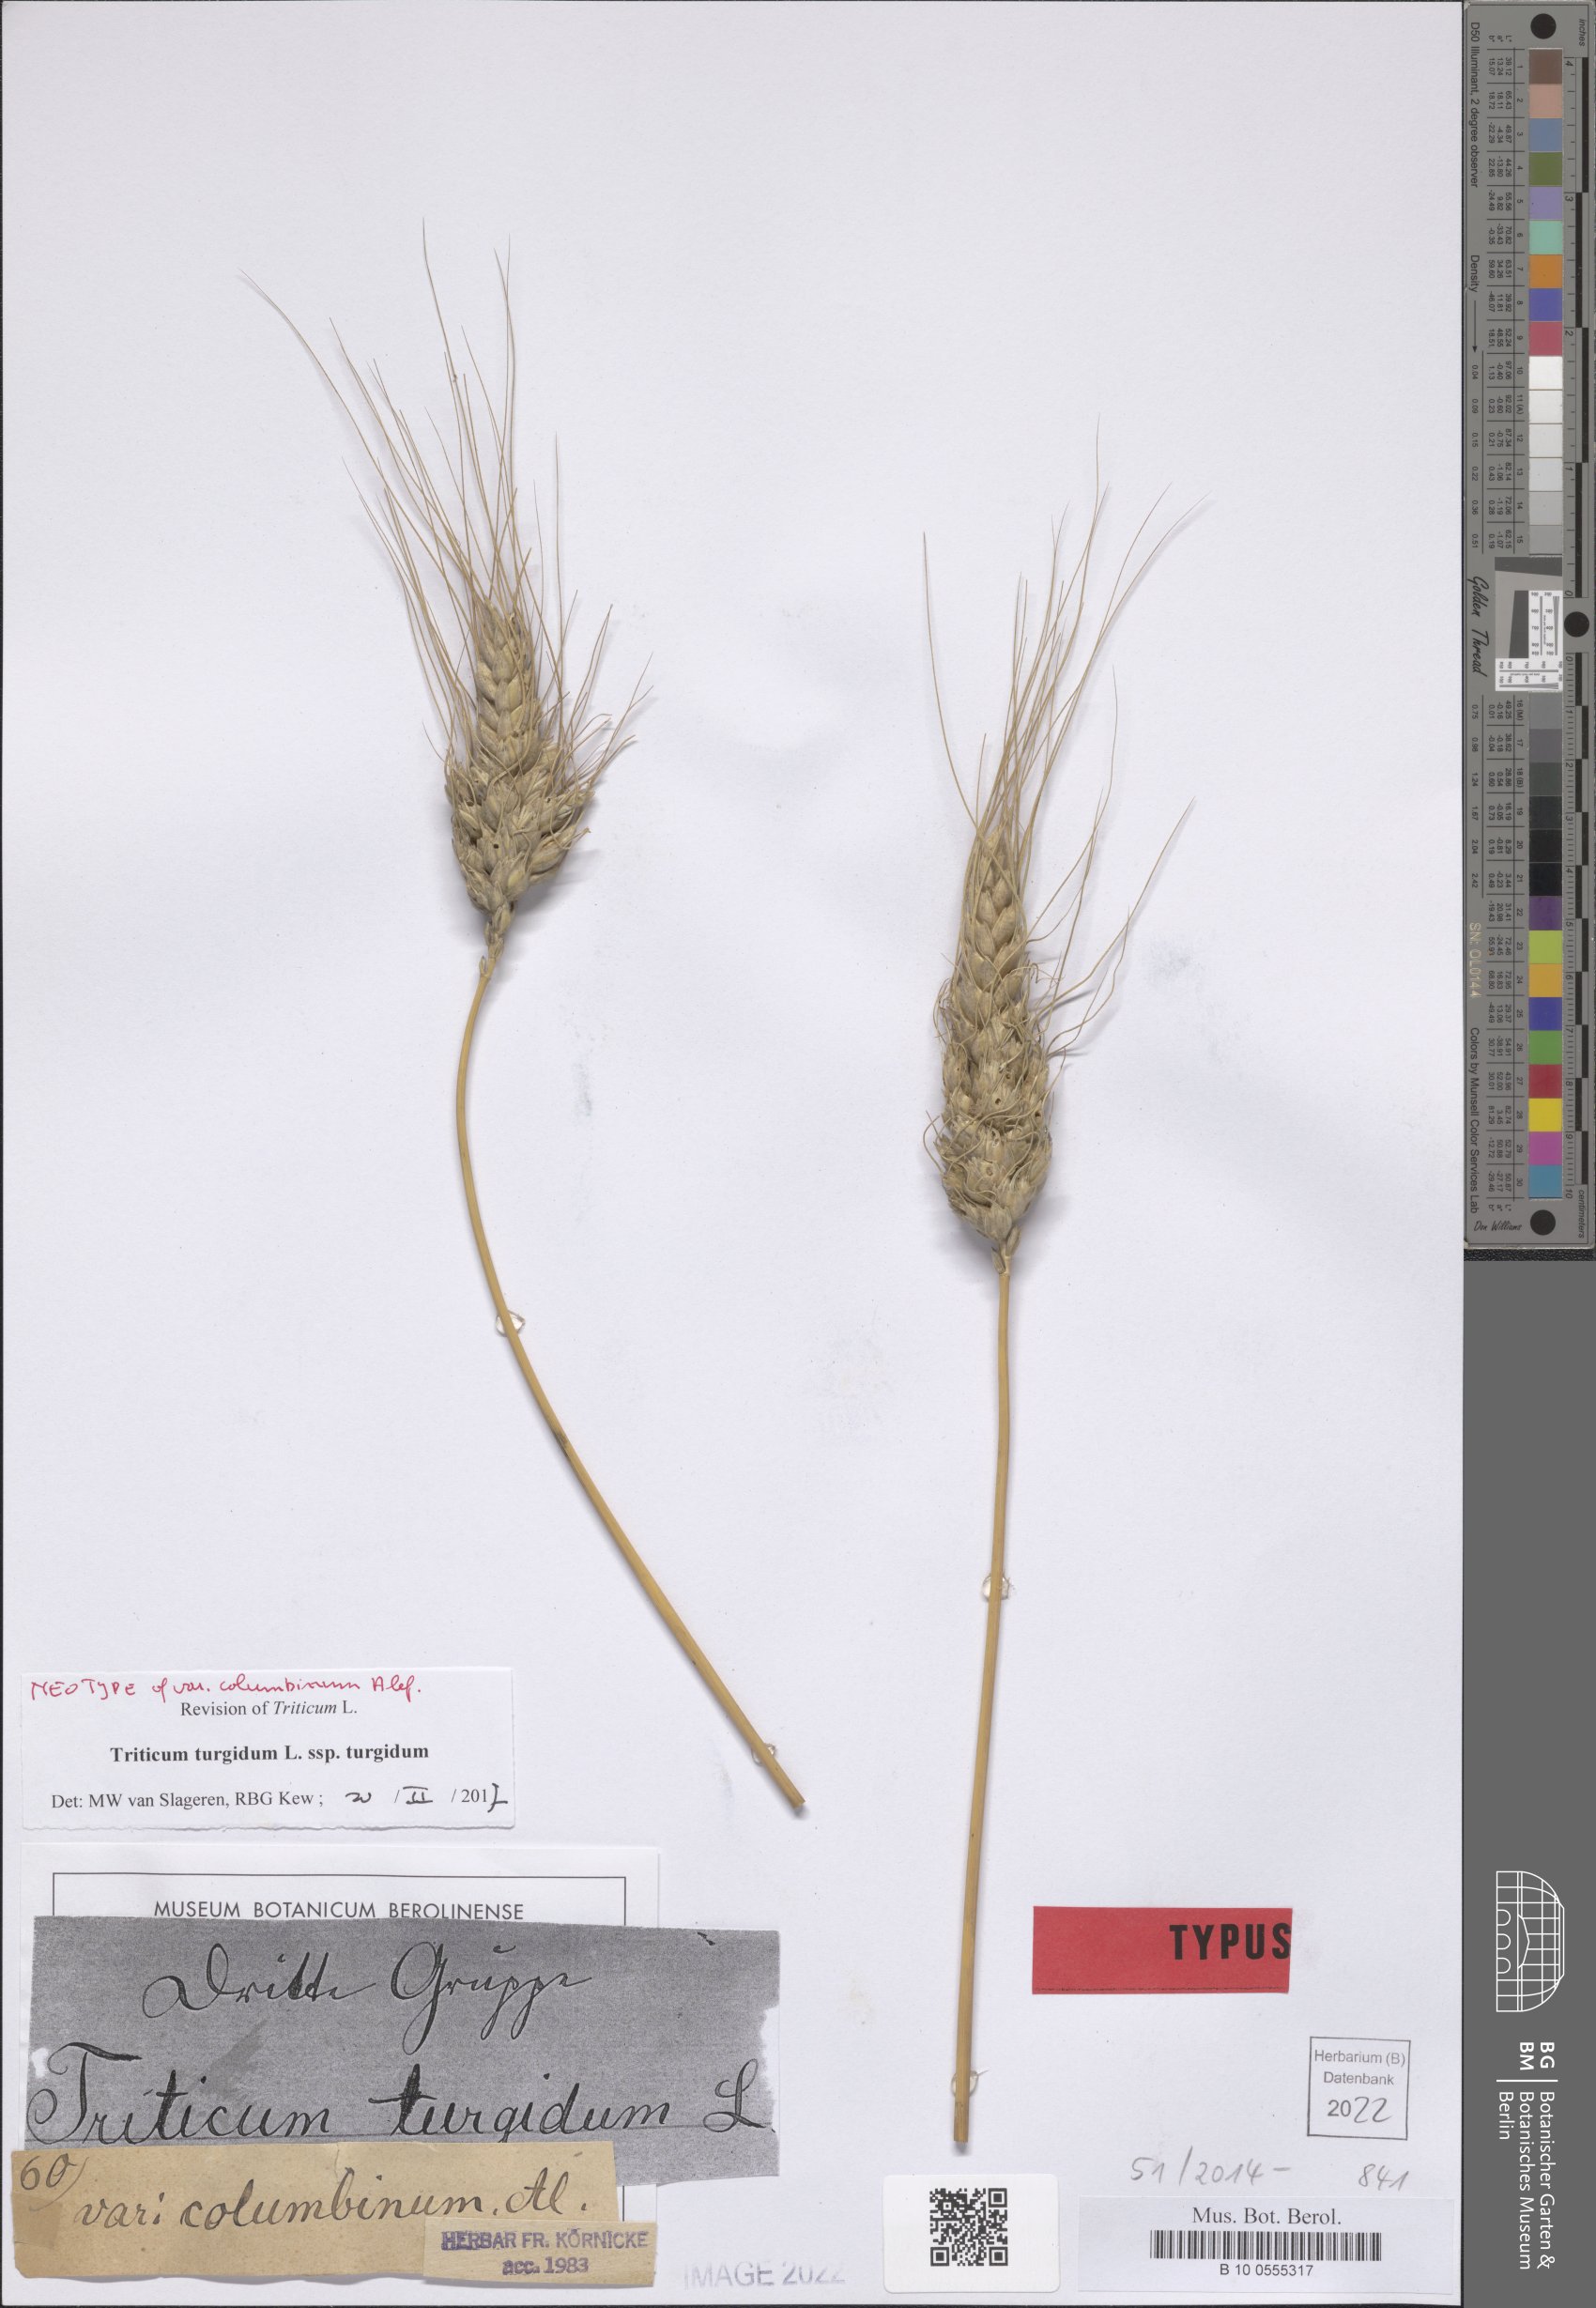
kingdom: Plantae
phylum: Tracheophyta
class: Liliopsida
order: Poales
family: Poaceae
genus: Triticum
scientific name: Triticum turgidum
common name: Rivet wheat
